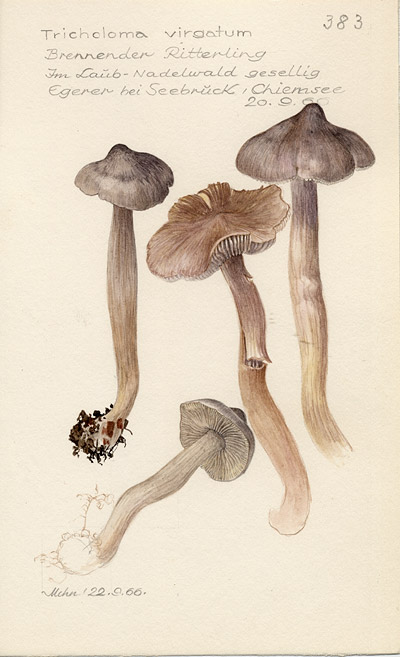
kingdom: Fungi
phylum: Basidiomycota
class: Agaricomycetes
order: Agaricales
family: Tricholomataceae
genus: Tricholoma
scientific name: Tricholoma virgatum
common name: Ashen knight
